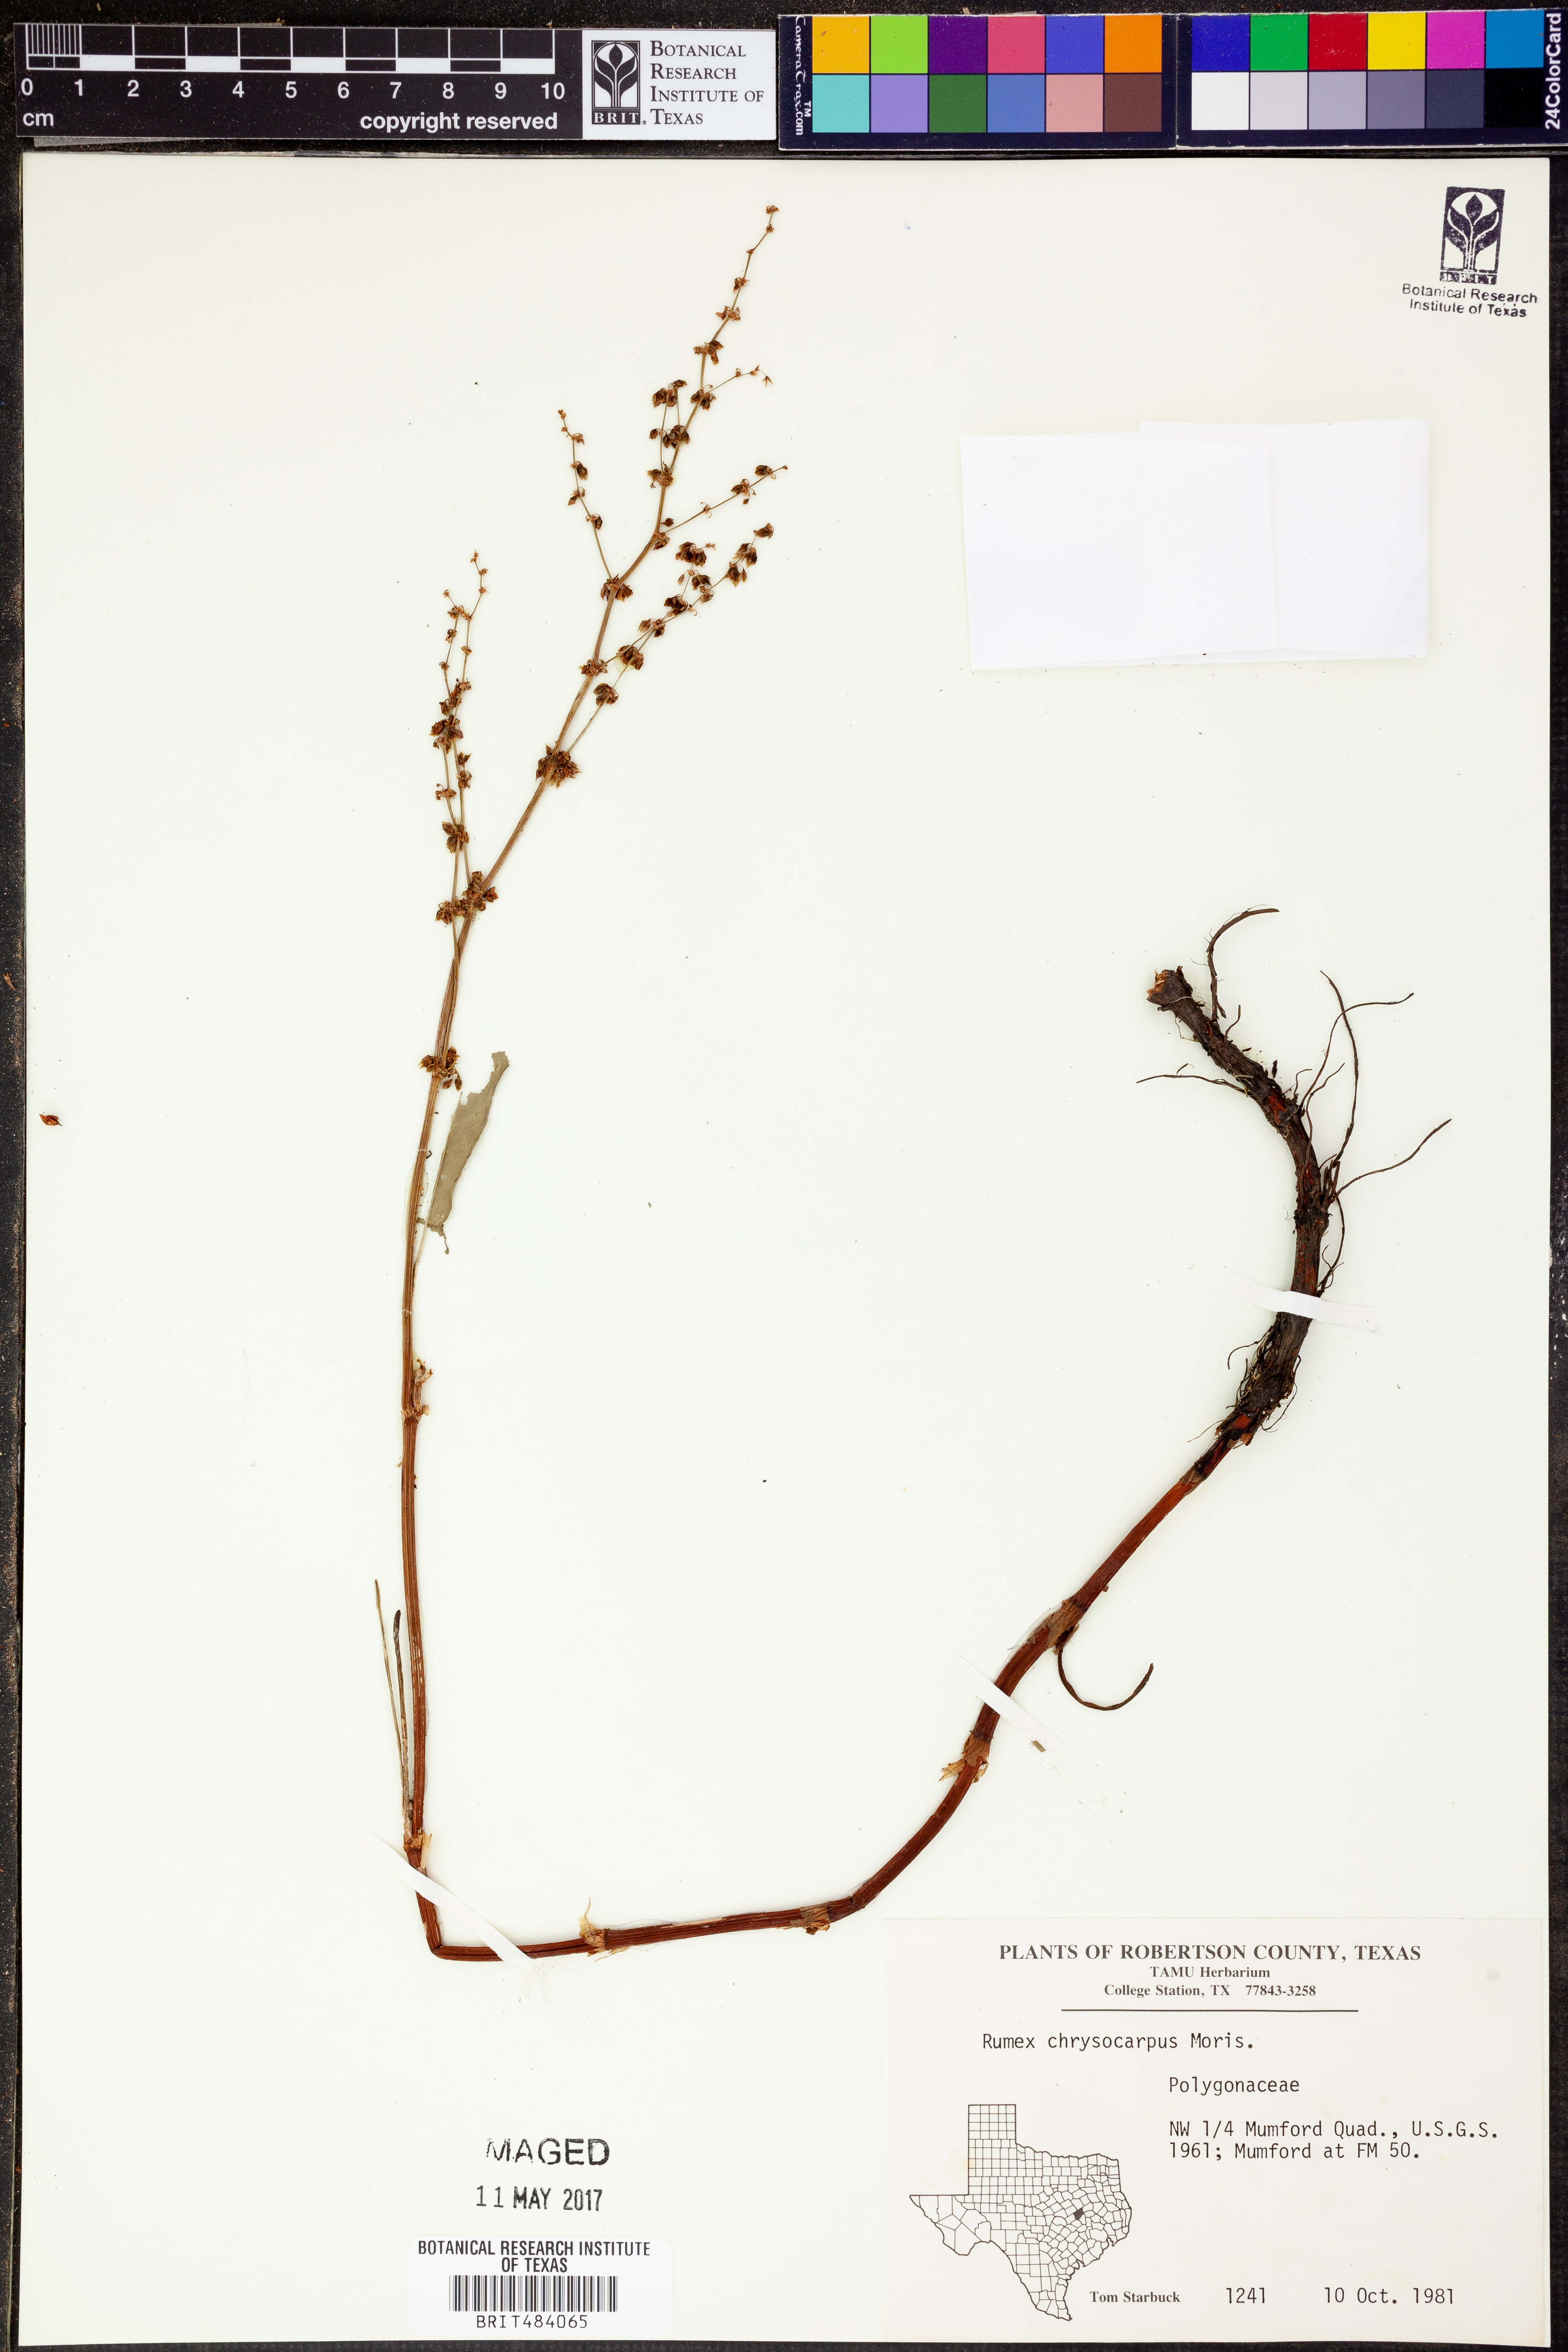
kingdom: Plantae
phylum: Tracheophyta
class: Magnoliopsida
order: Caryophyllales
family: Polygonaceae
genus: Rumex
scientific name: Rumex chrysocarpus
